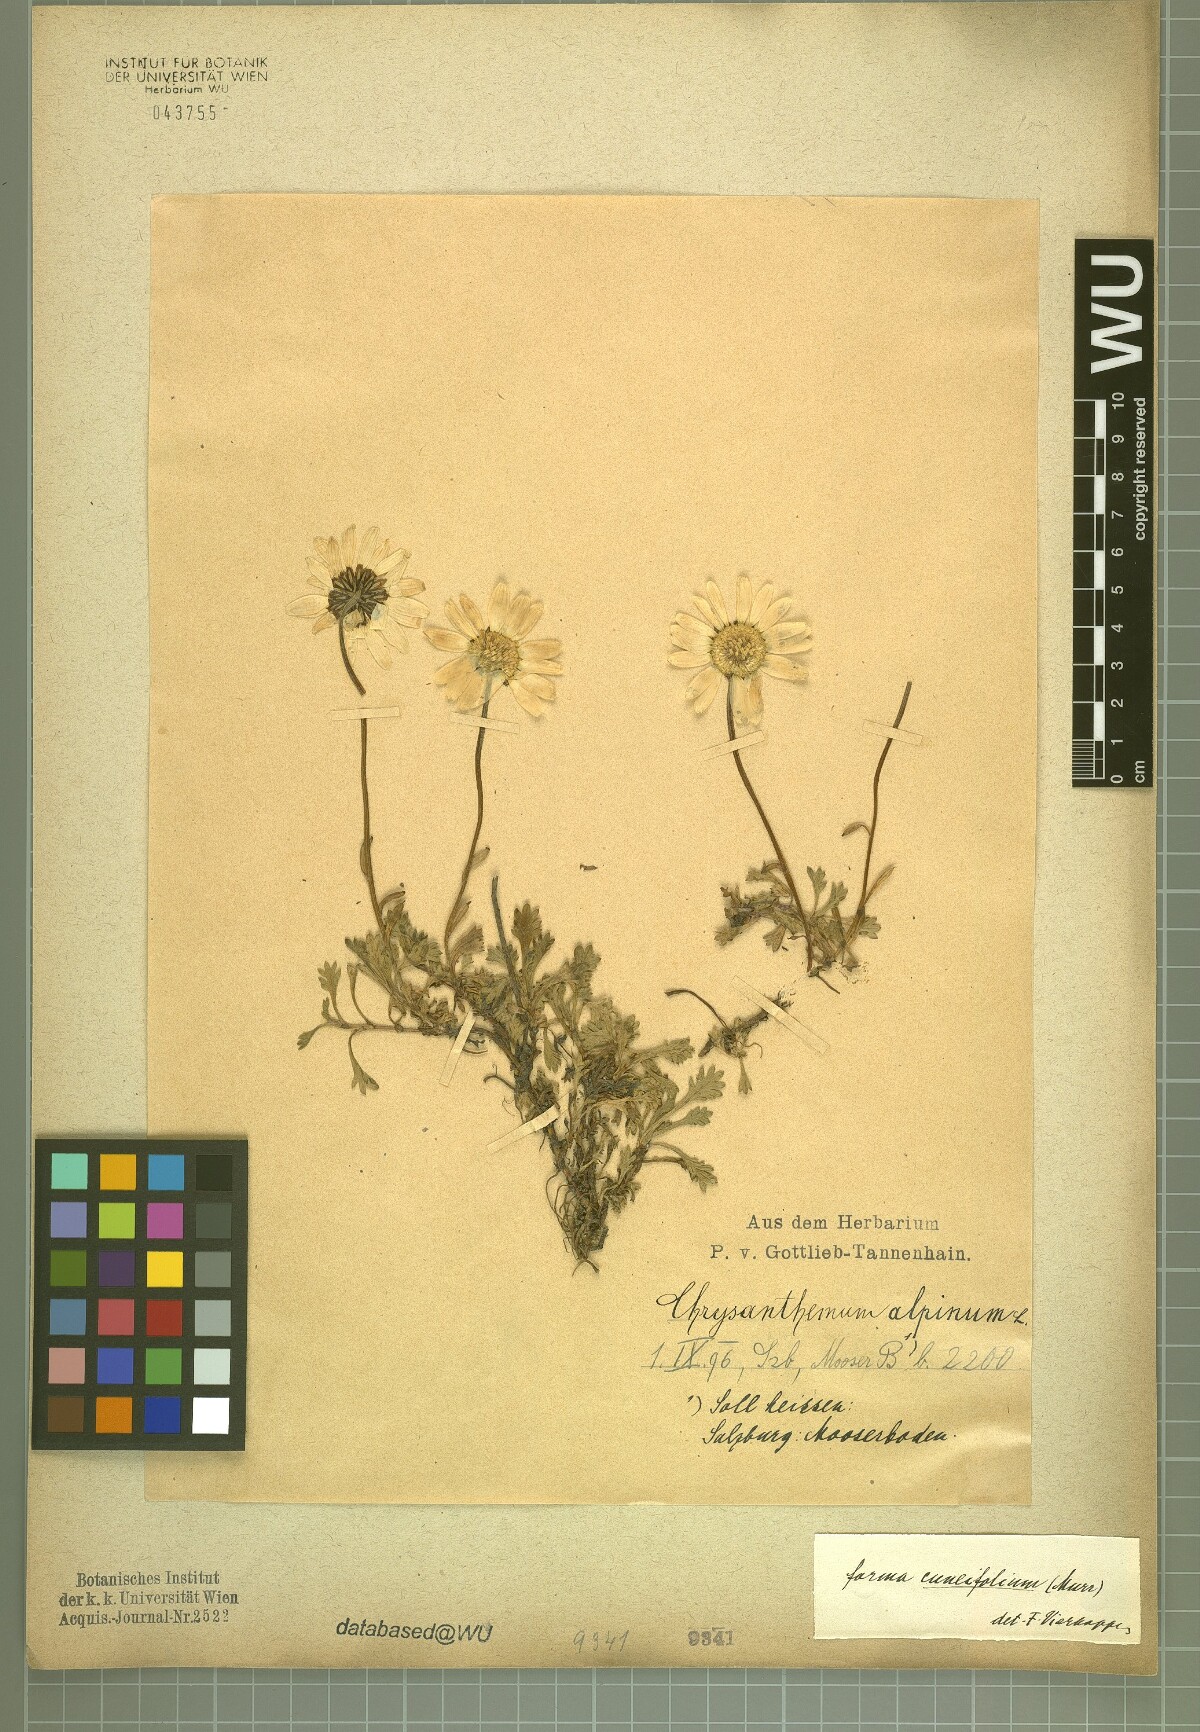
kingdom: Plantae
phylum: Tracheophyta
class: Magnoliopsida
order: Asterales
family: Asteraceae
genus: Leucanthemopsis
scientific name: Leucanthemopsis alpina
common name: Alpine moon daisy
